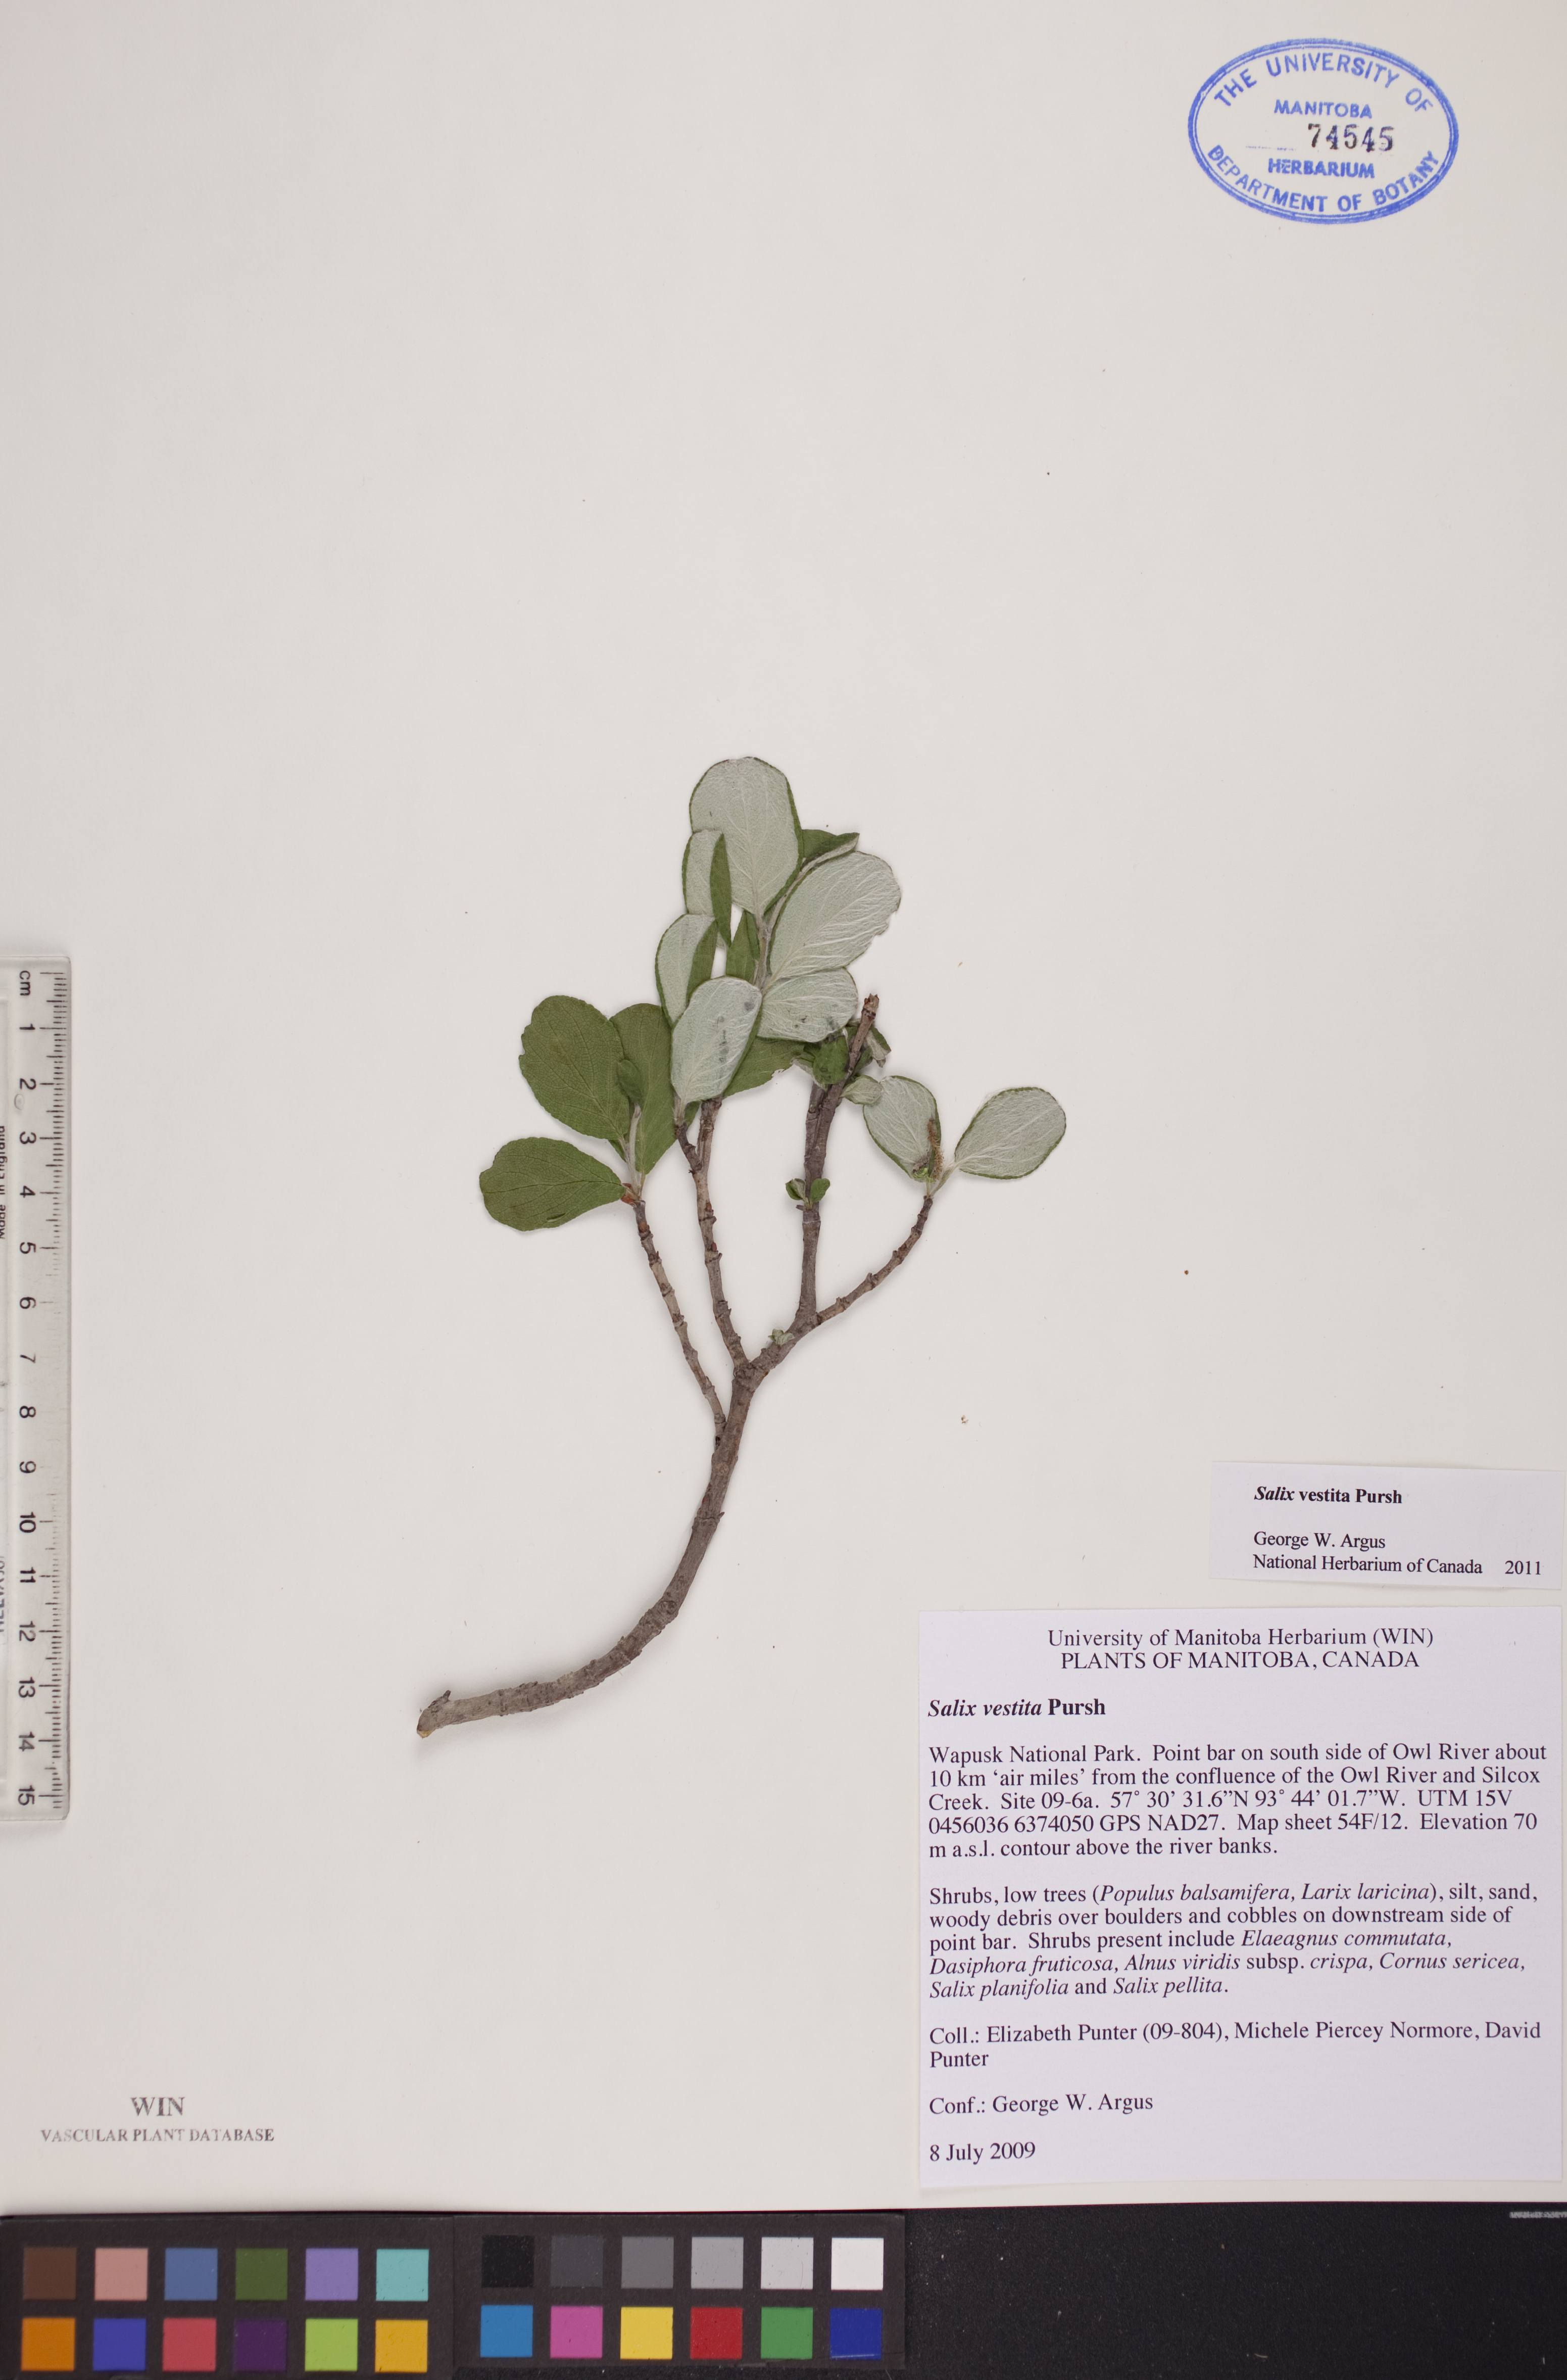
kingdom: Plantae
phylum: Tracheophyta
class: Magnoliopsida
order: Malpighiales
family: Salicaceae
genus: Salix
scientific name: Salix vestita
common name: Hairy willow
